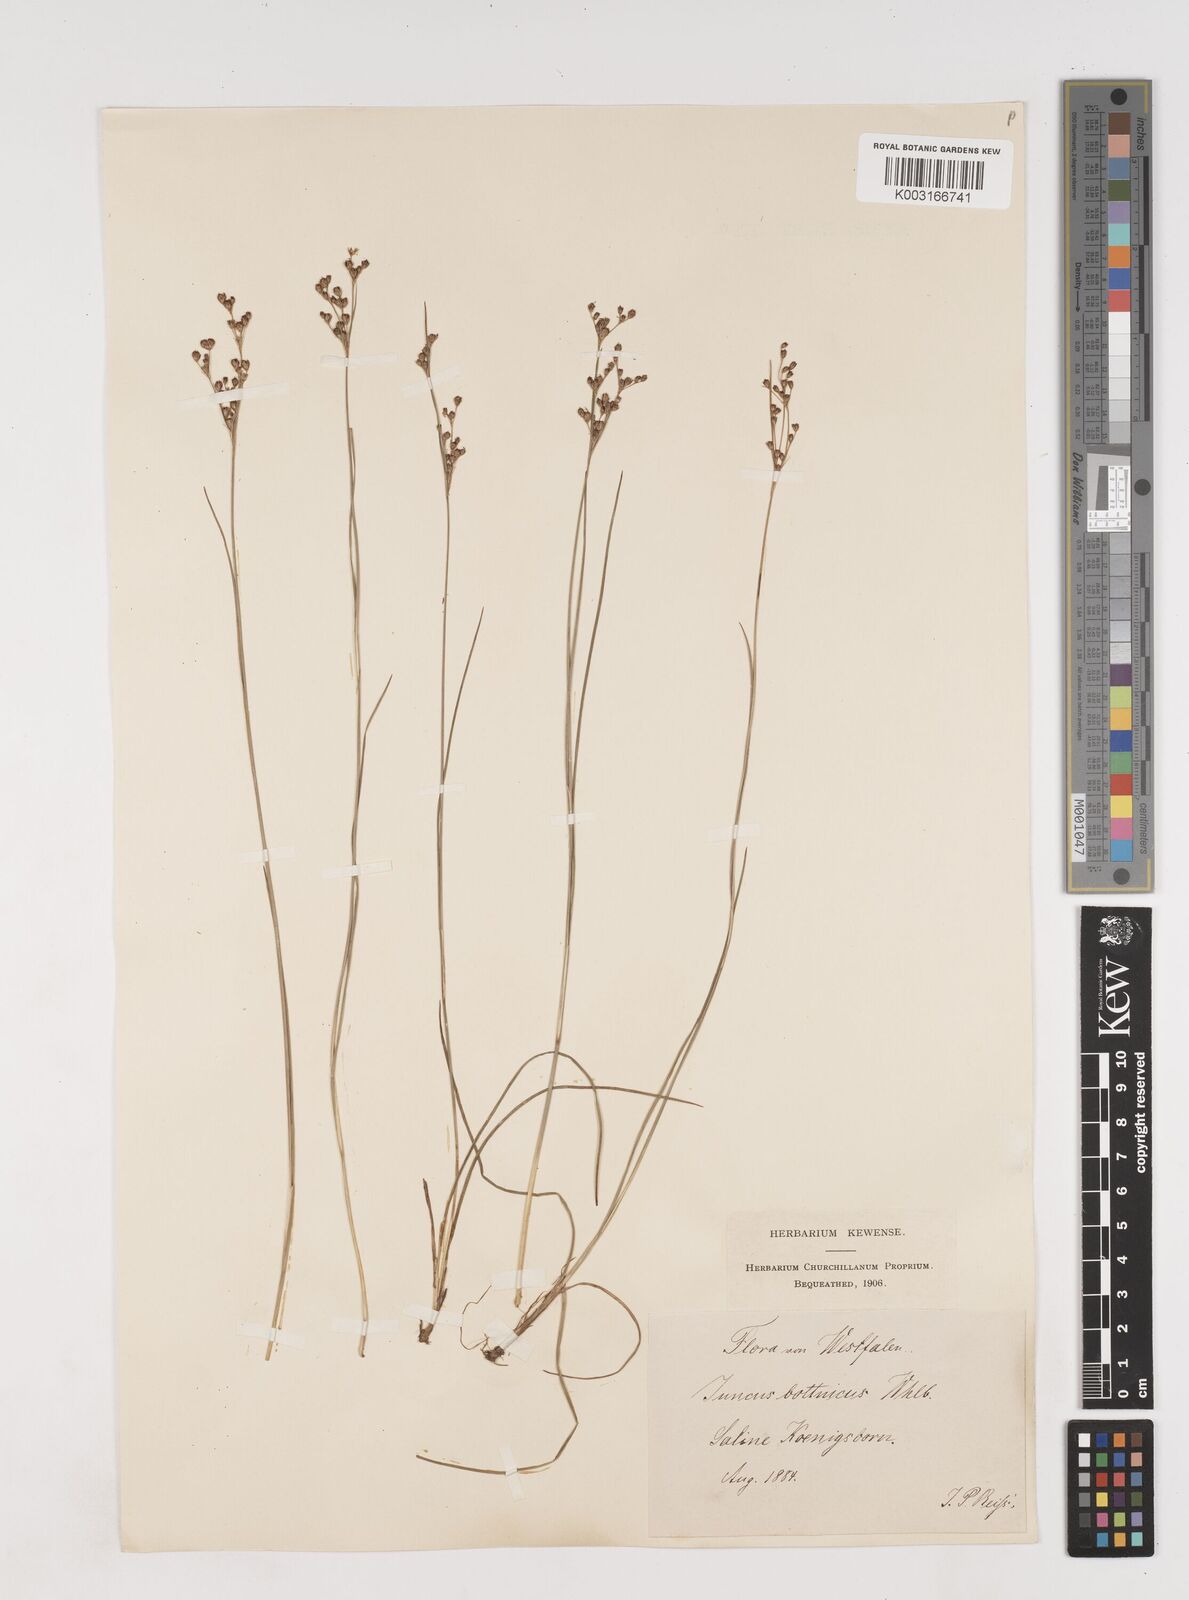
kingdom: Plantae
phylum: Tracheophyta
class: Liliopsida
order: Poales
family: Juncaceae
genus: Juncus
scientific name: Juncus
